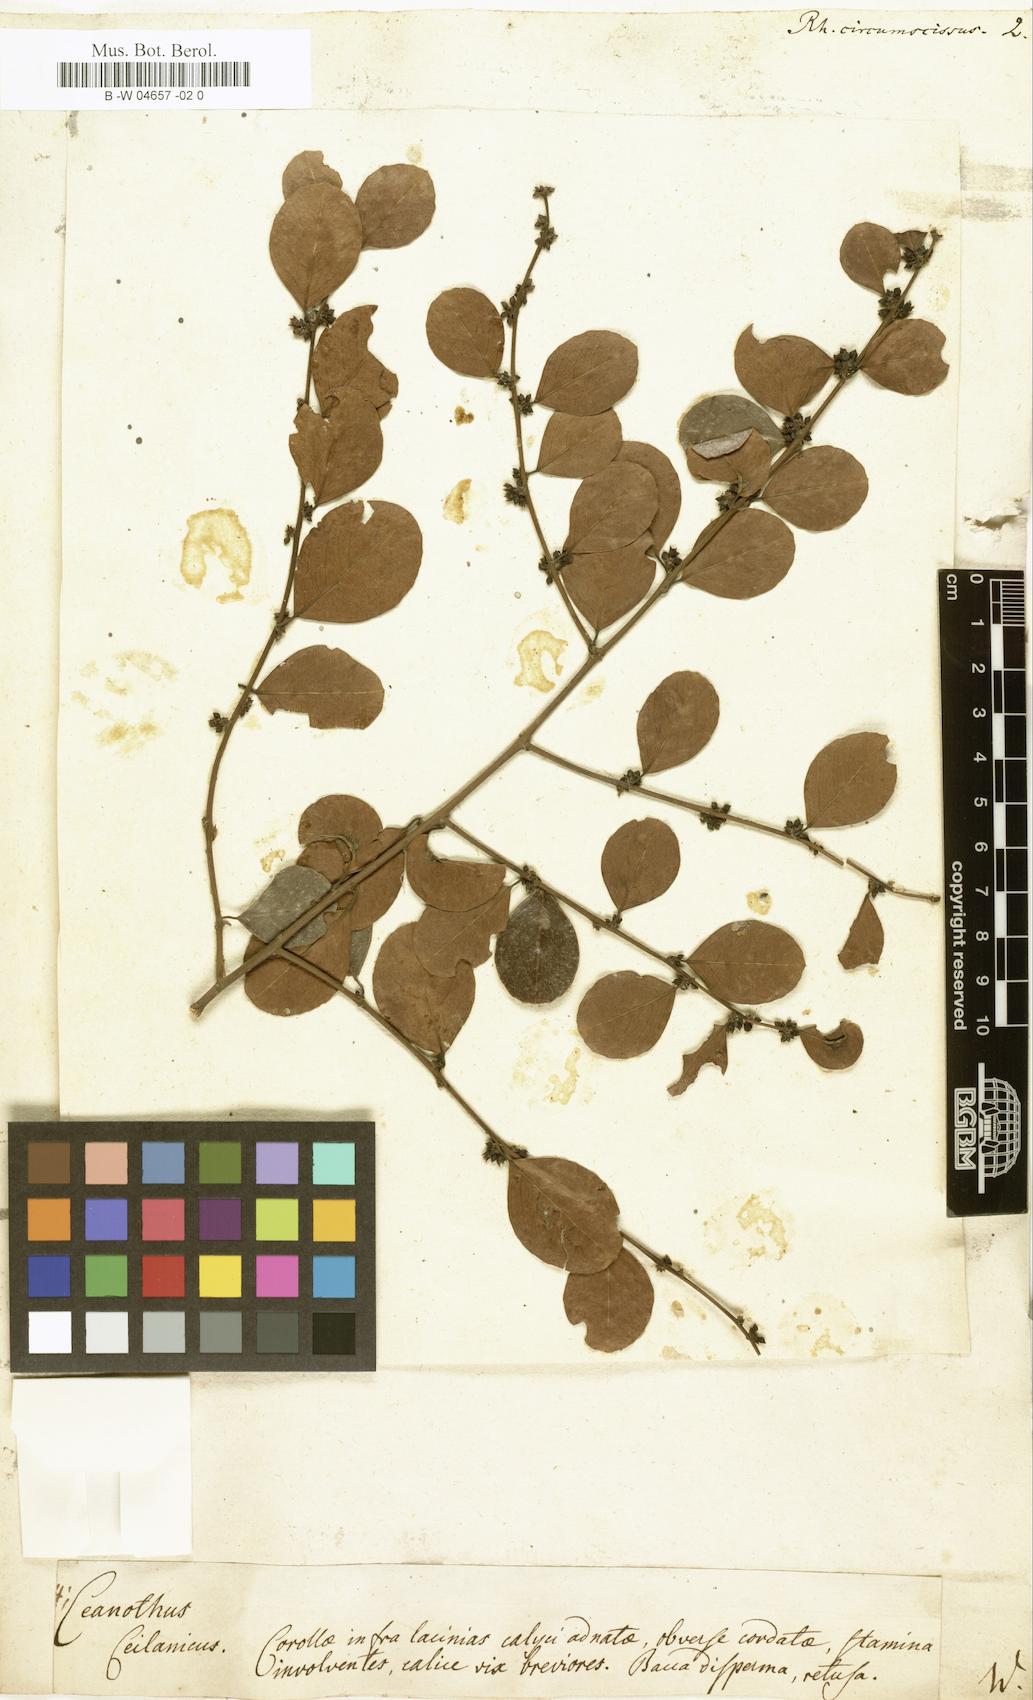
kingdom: Plantae
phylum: Tracheophyta
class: Magnoliopsida
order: Rosales
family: Rhamnaceae
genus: Scutia
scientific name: Scutia myrtina
